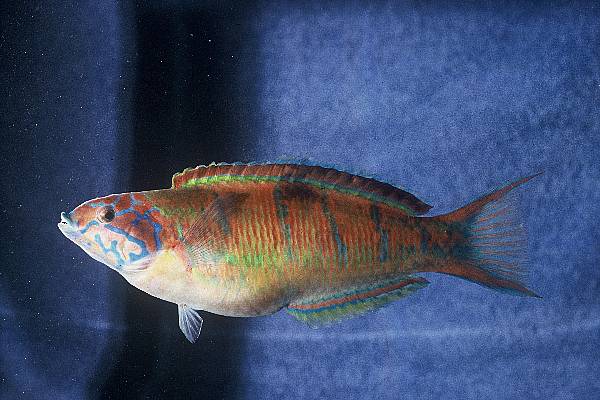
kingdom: Animalia
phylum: Chordata
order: Perciformes
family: Labridae
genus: Thalassoma
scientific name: Thalassoma pavo
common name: Ornate wrasse
